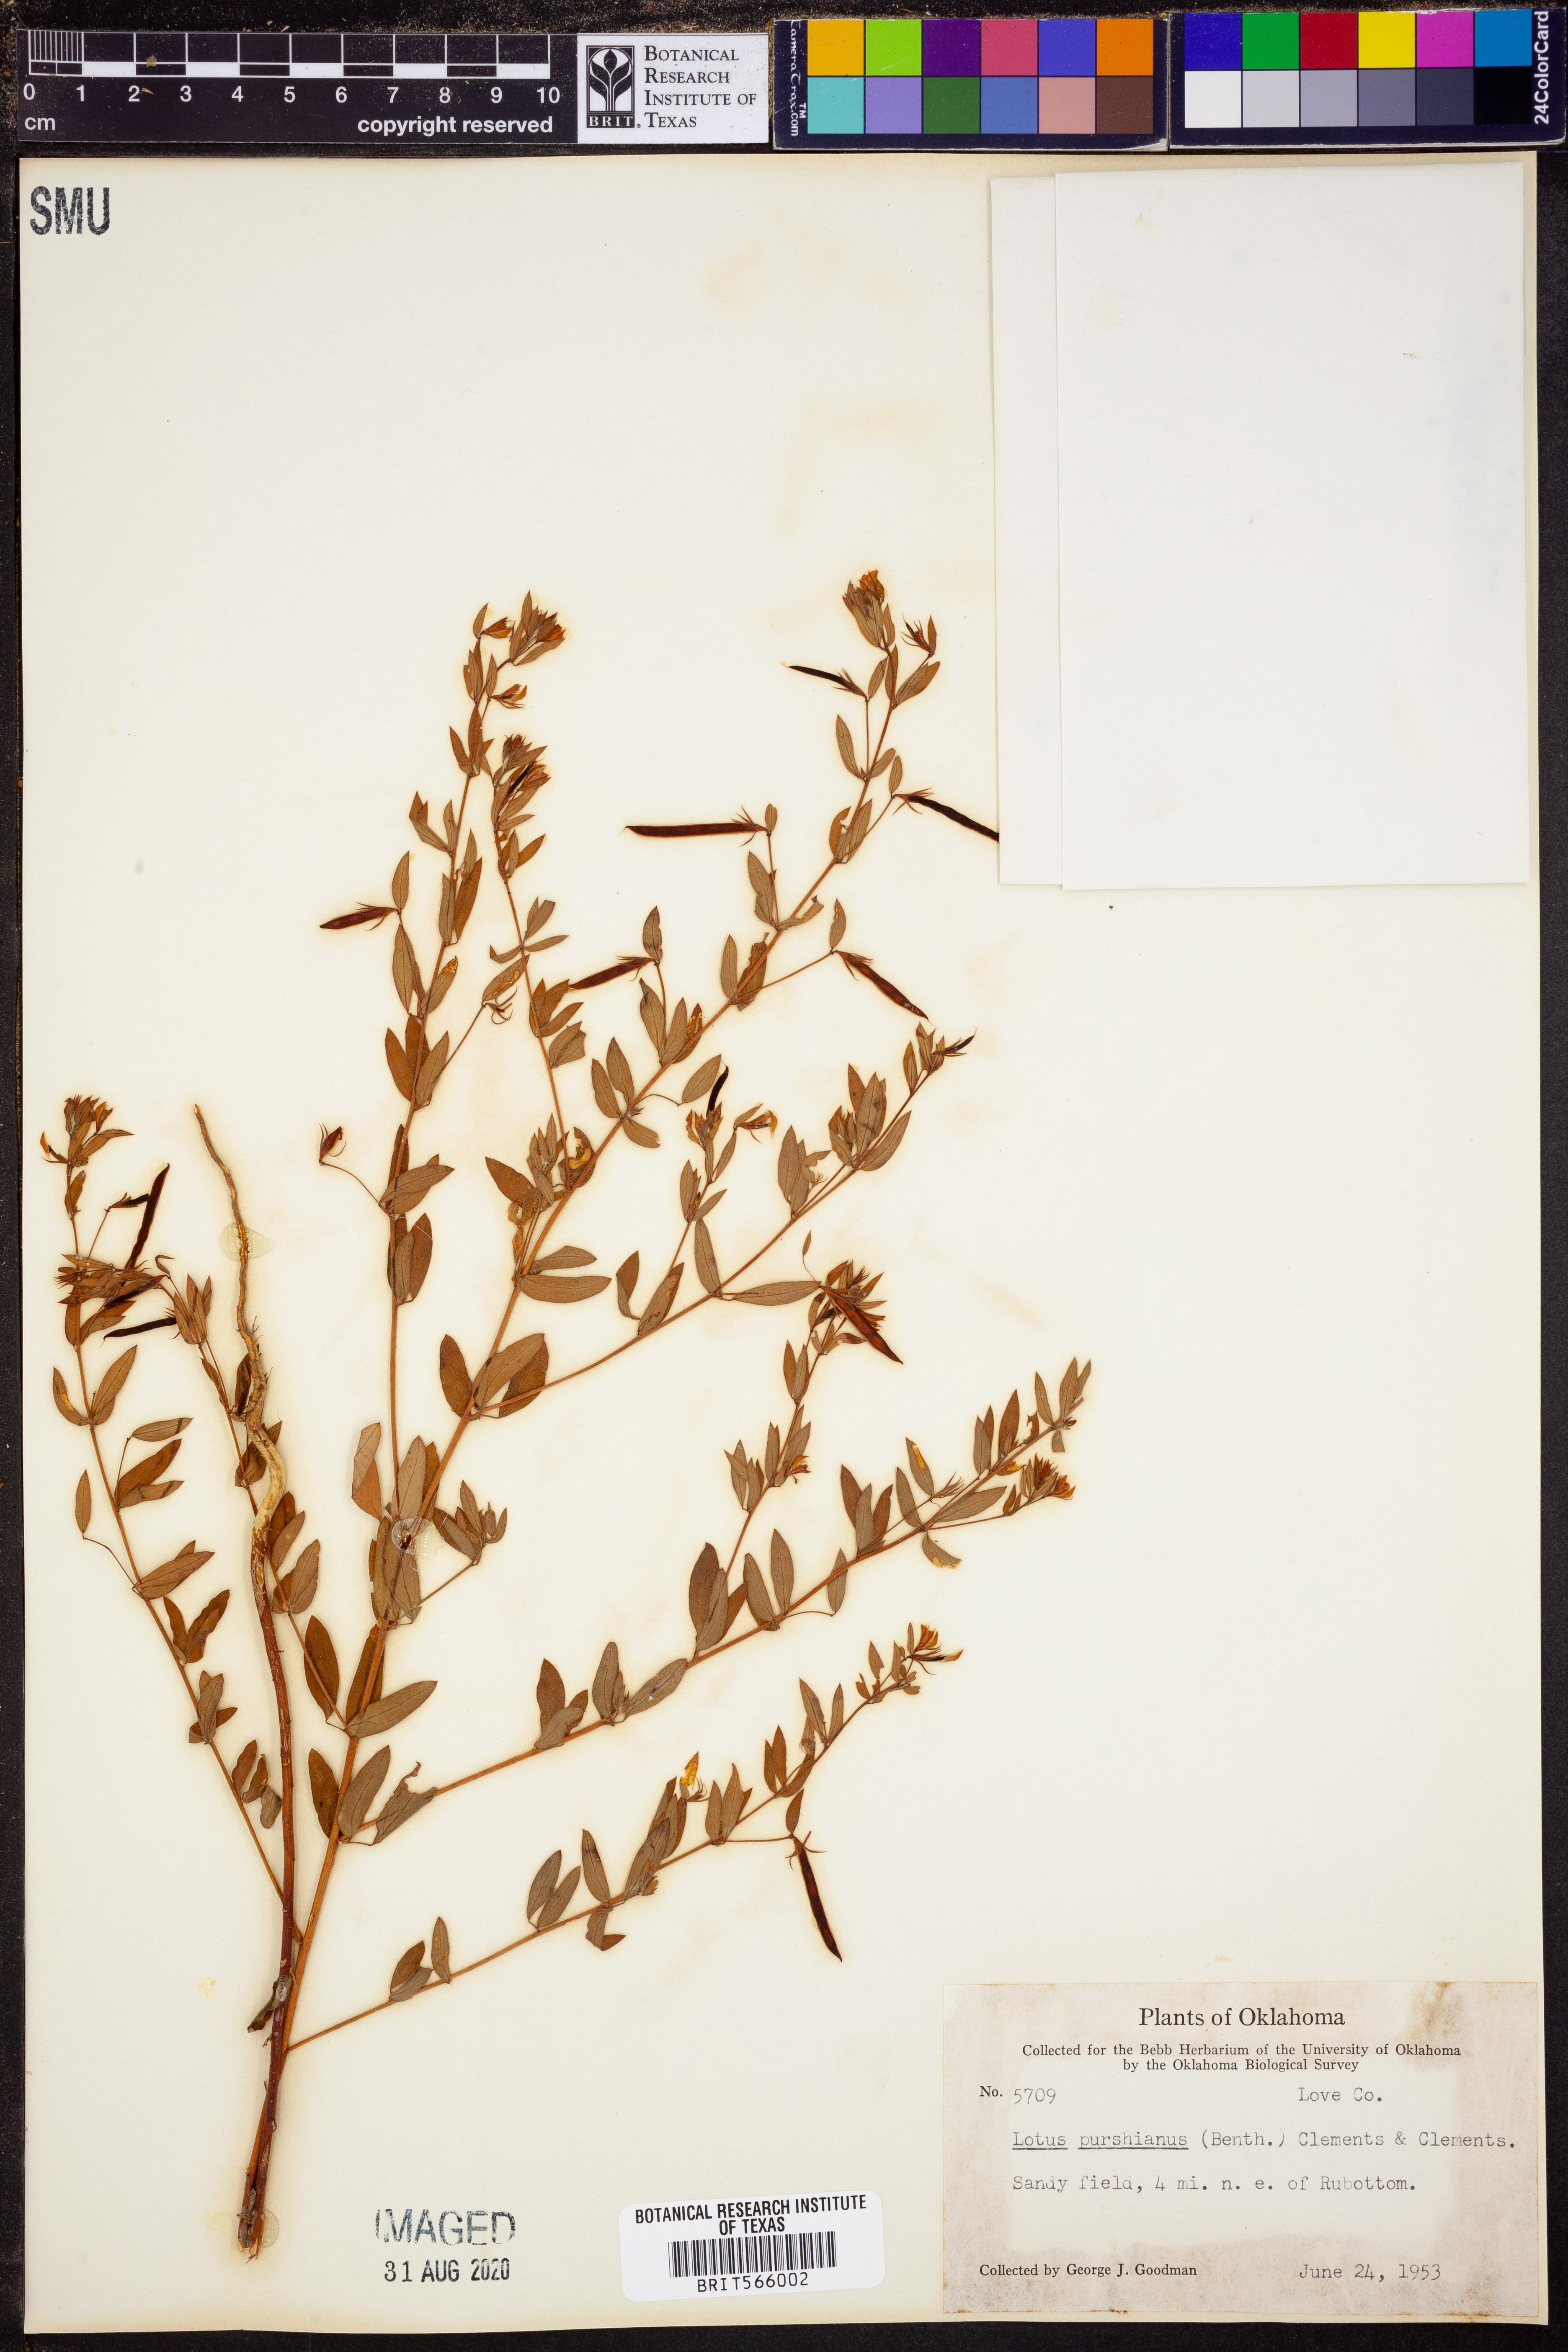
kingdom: Plantae
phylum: Tracheophyta
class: Magnoliopsida
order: Fabales
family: Fabaceae
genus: Acmispon
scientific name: Acmispon americanus
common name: American bird's-foot trefoil
